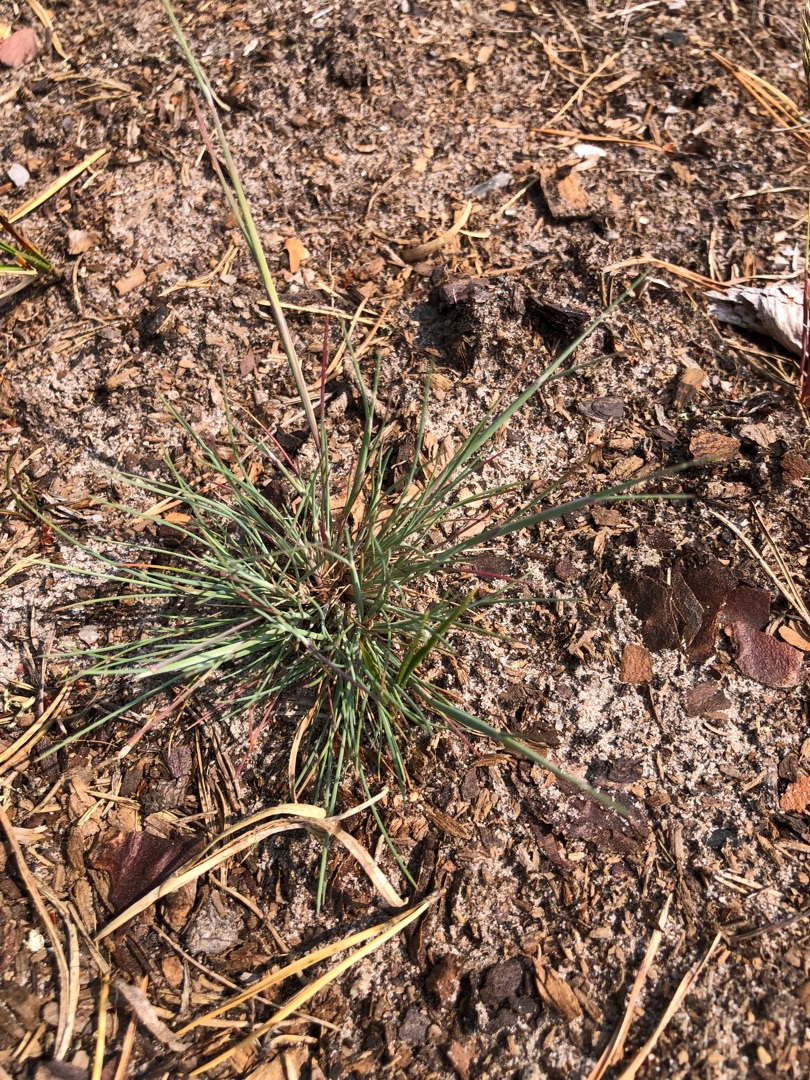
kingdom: Plantae
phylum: Tracheophyta
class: Liliopsida
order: Poales
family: Poaceae
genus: Corynephorus
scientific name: Corynephorus canescens
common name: Sandskæg
